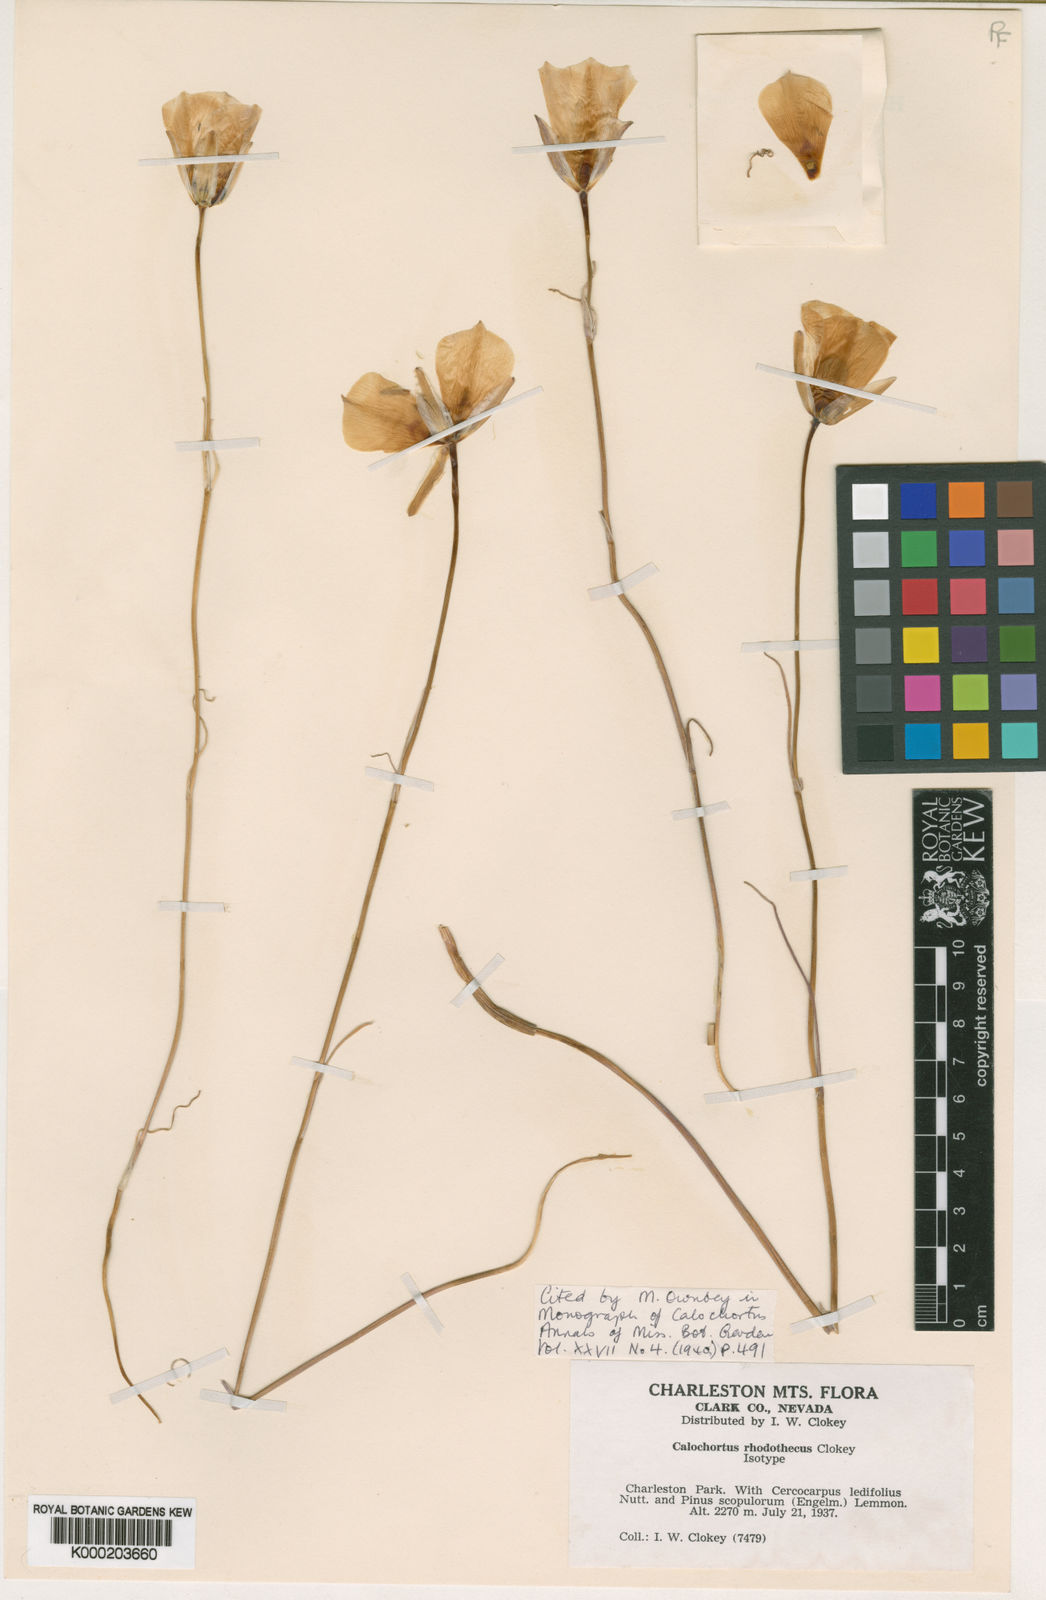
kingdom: Plantae
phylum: Tracheophyta
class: Liliopsida
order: Liliales
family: Liliaceae
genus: Calochortus
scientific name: Calochortus nuttallii
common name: Sego-lily
